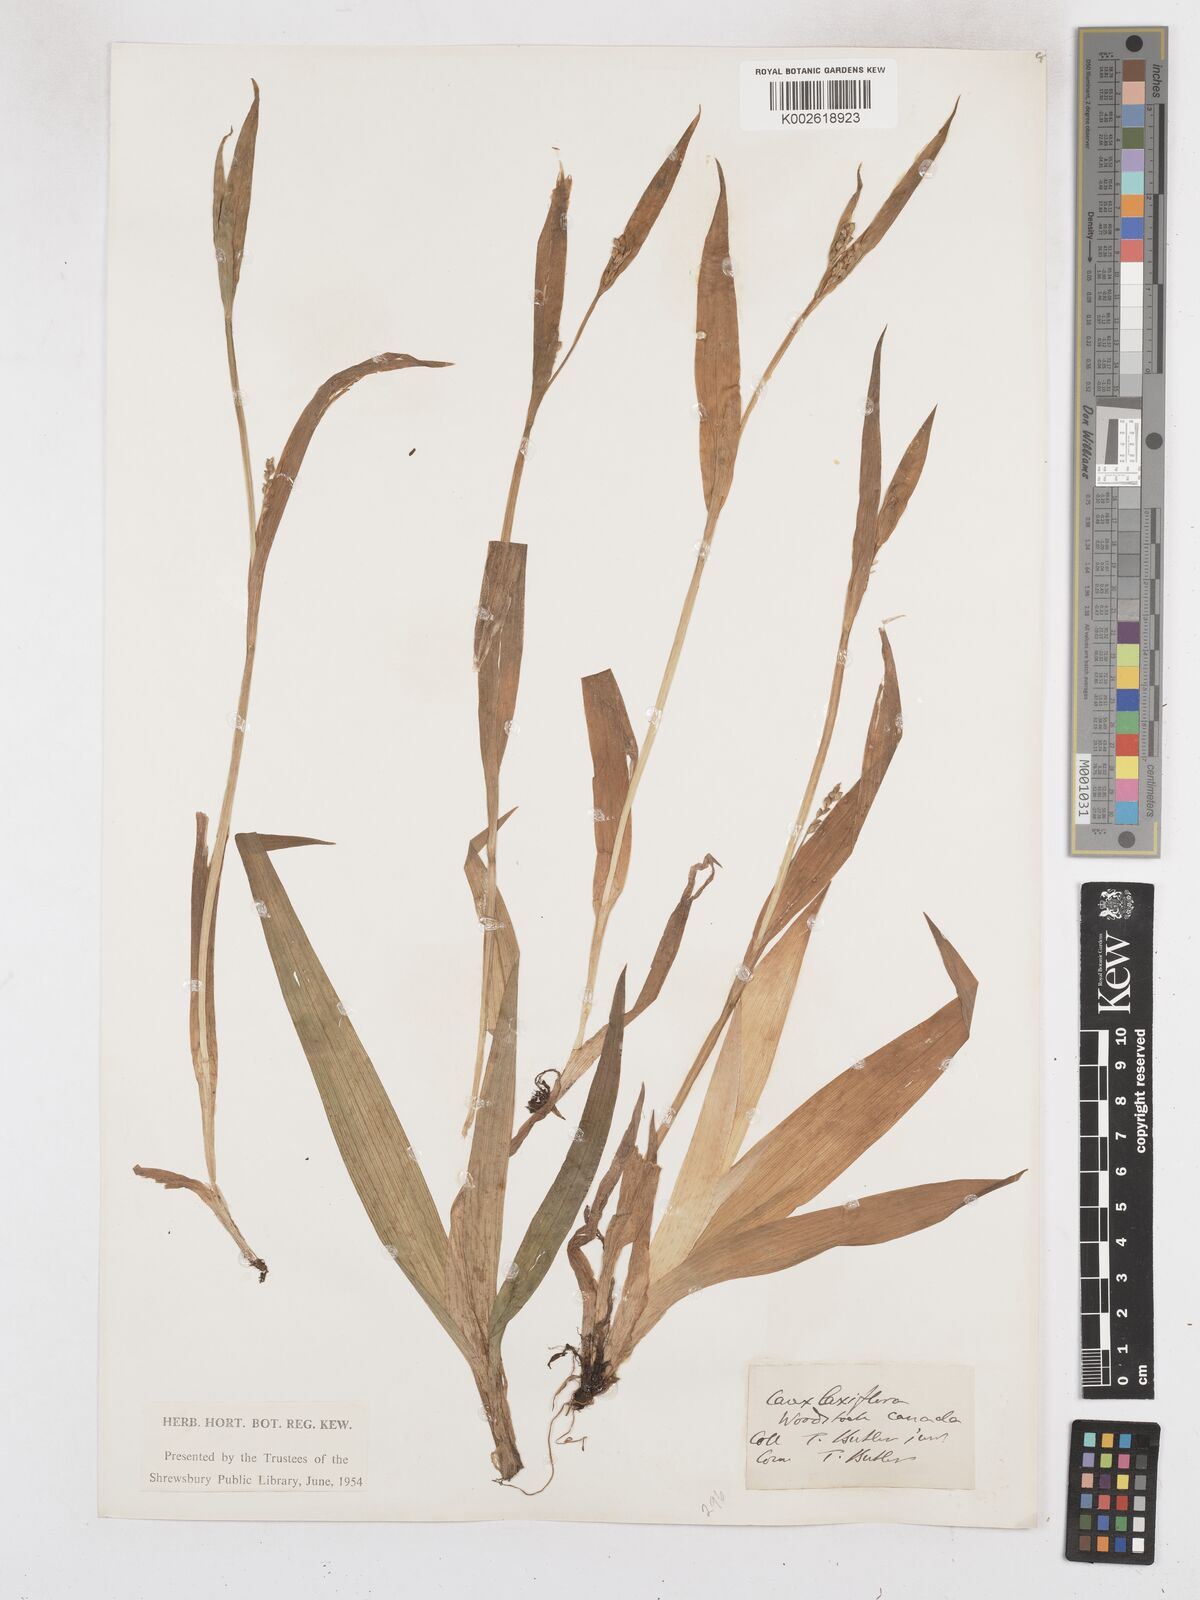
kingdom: Plantae
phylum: Tracheophyta
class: Liliopsida
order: Poales
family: Cyperaceae
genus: Carex
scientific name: Carex laxiflora
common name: Beech wood sedge
